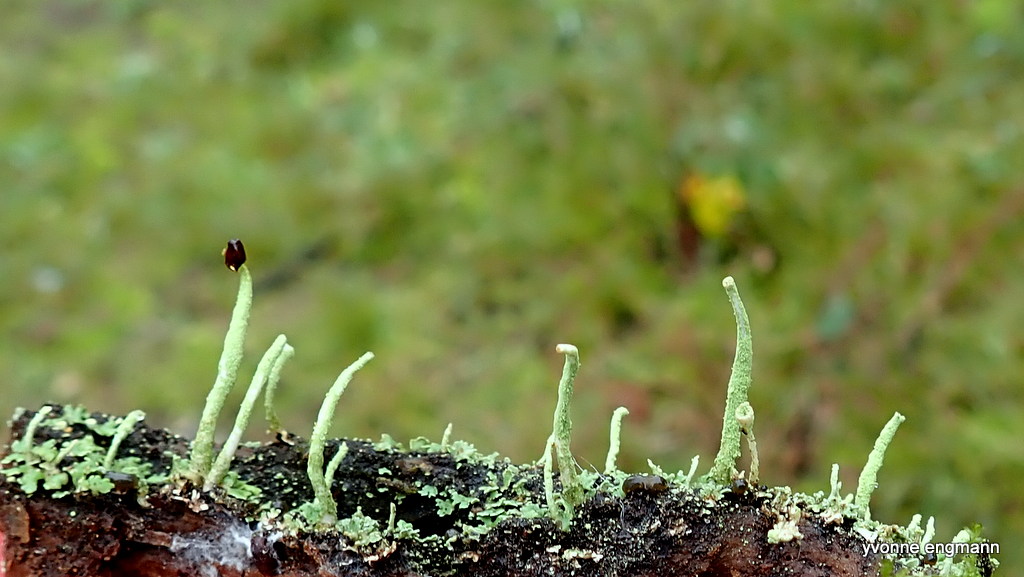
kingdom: Fungi
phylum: Ascomycota
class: Lecanoromycetes
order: Lecanorales
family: Cladoniaceae
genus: Cladonia
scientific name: Cladonia coniocraea
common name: træfods-bægerlav
